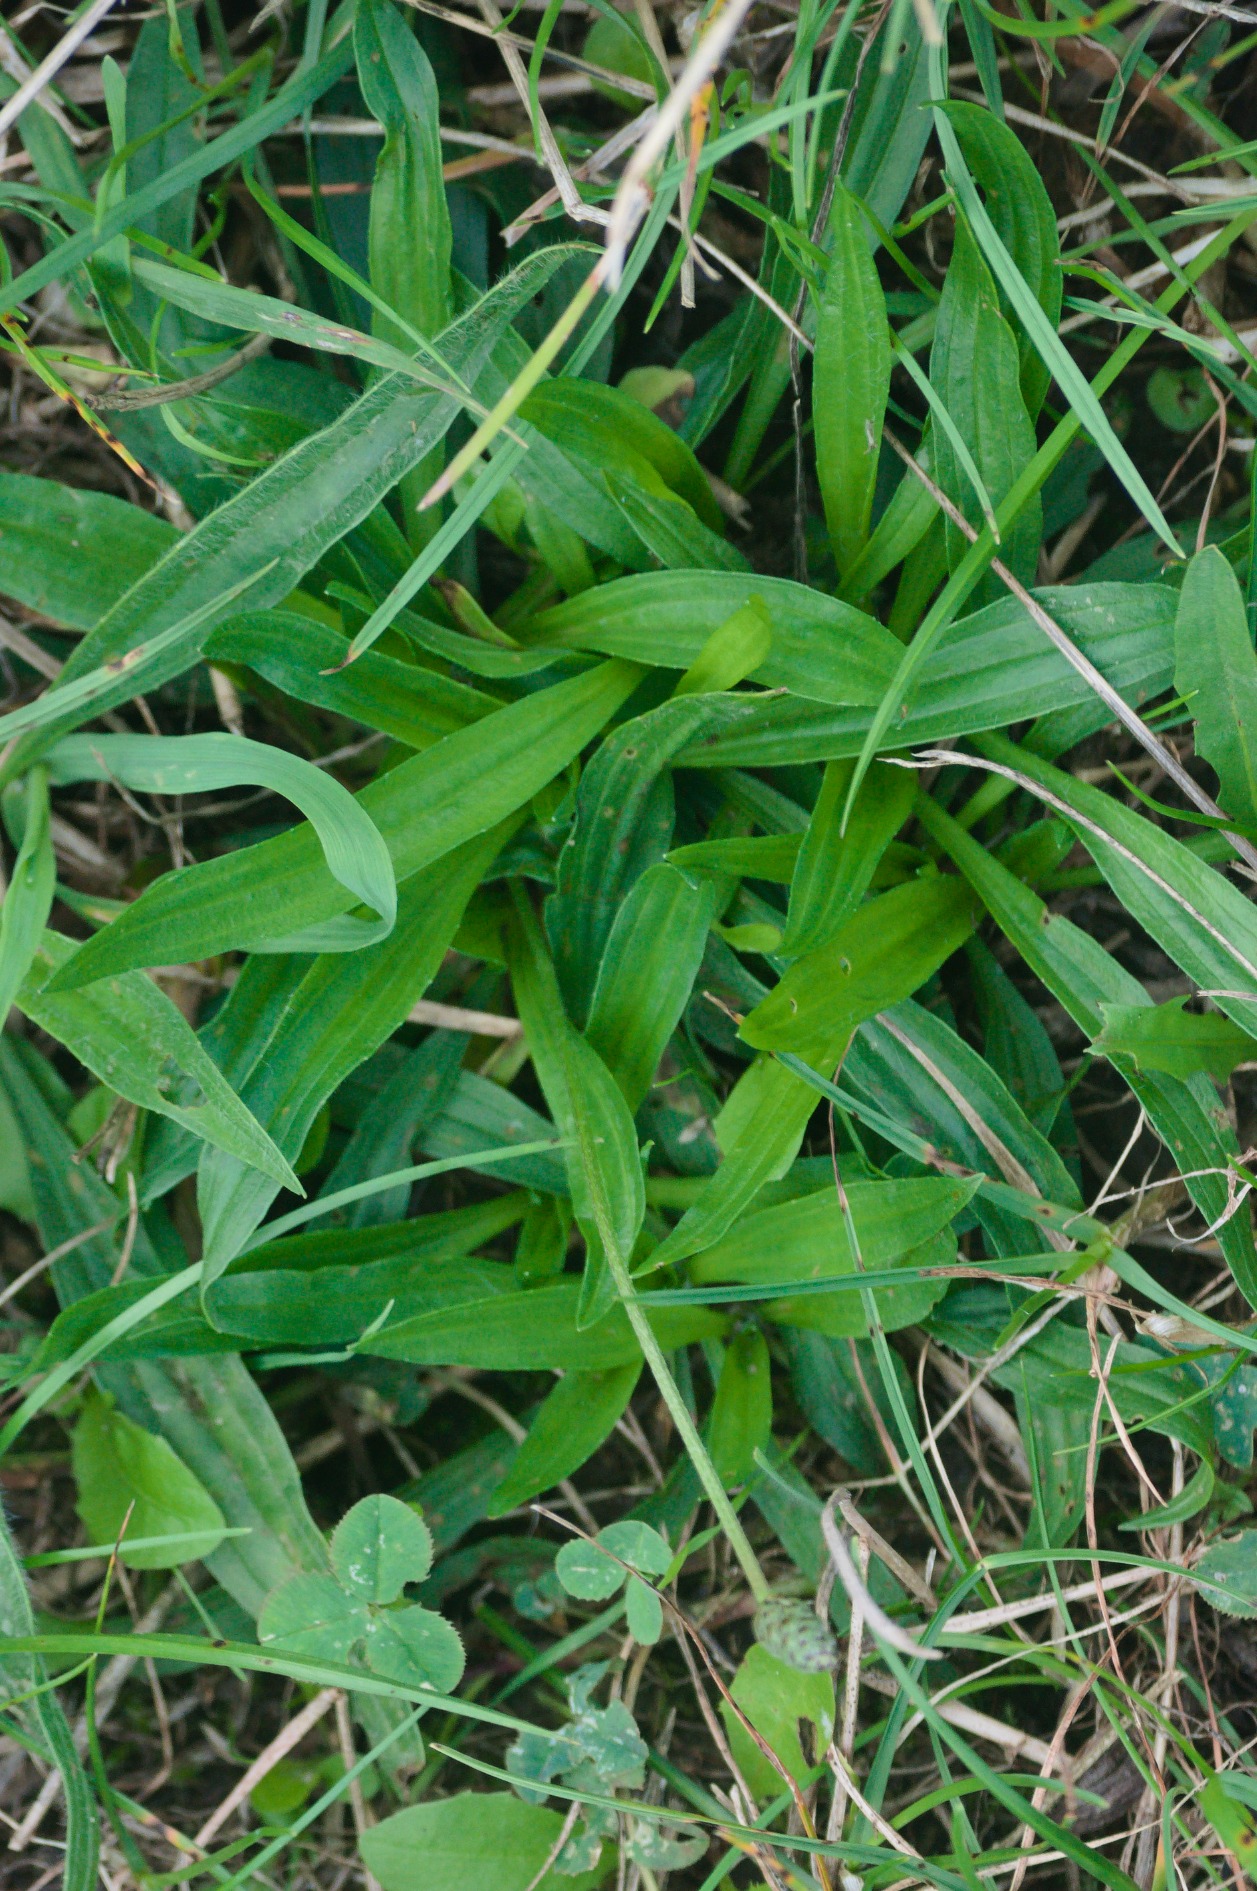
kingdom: Plantae
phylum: Tracheophyta
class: Magnoliopsida
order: Lamiales
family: Plantaginaceae
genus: Plantago
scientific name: Plantago lanceolata
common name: Lancet-vejbred
